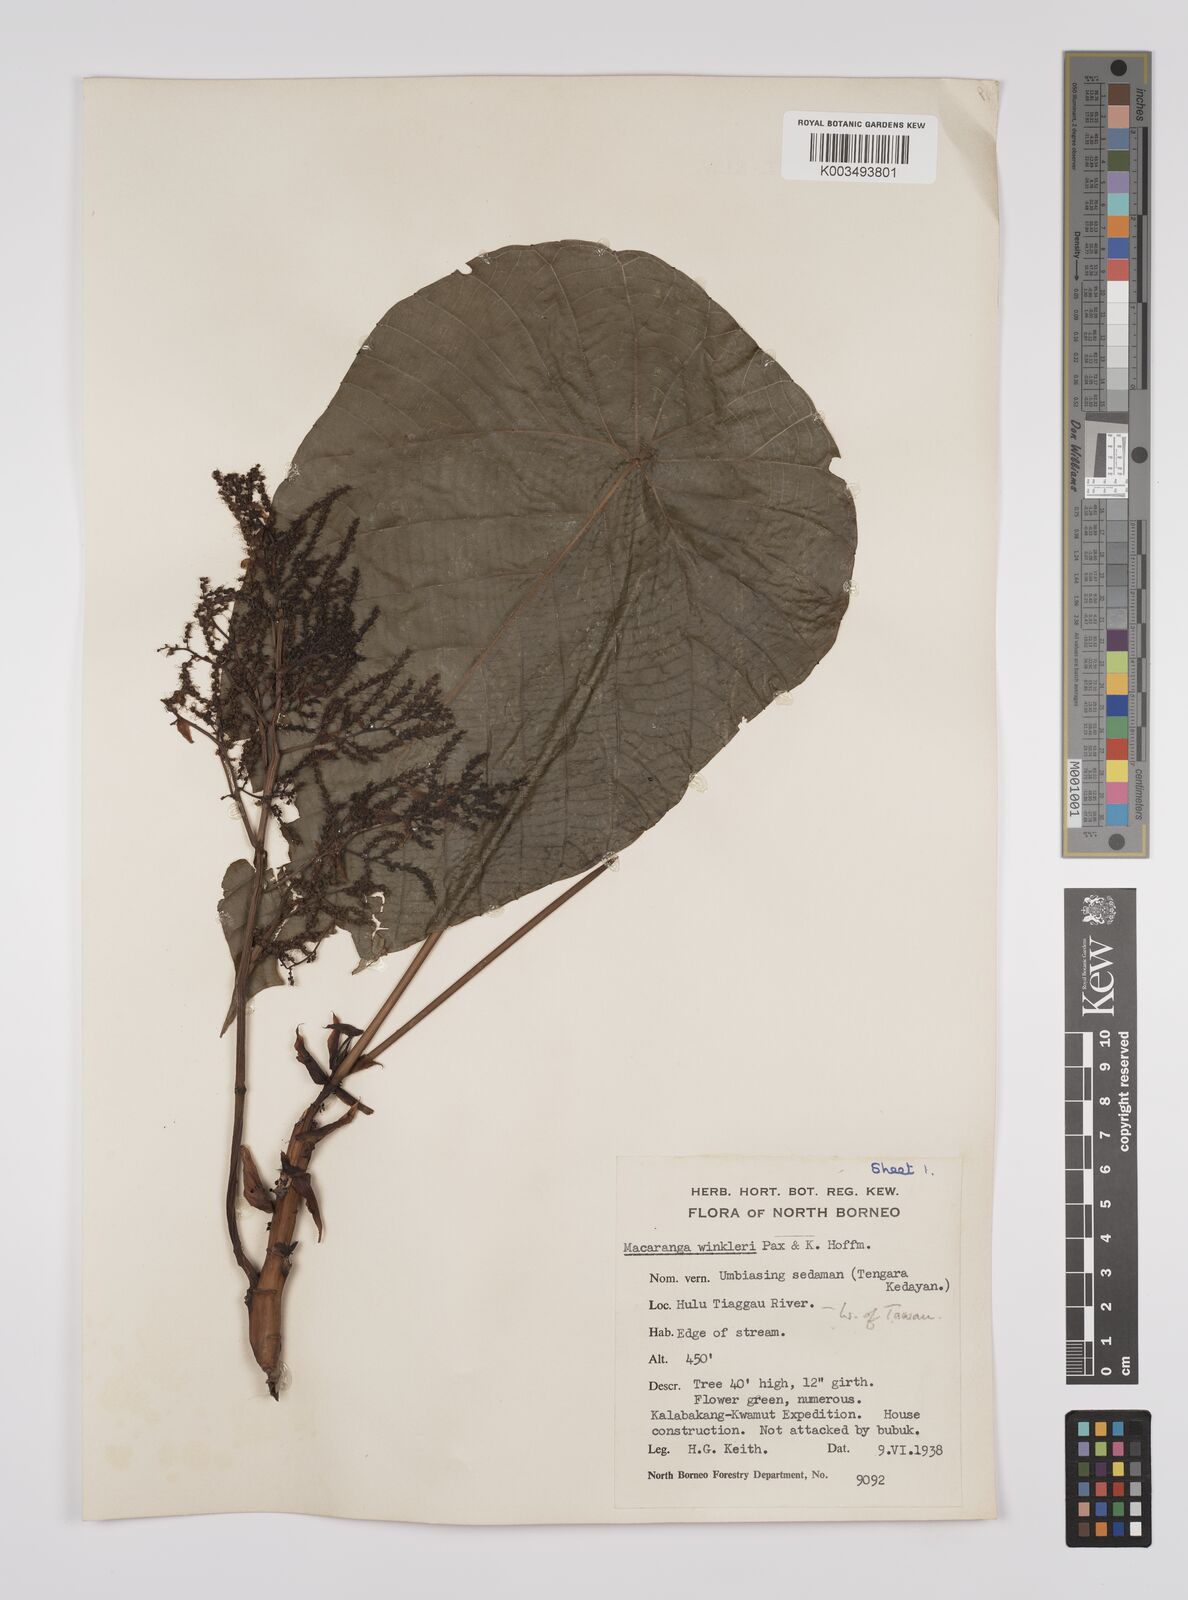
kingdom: Plantae
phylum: Tracheophyta
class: Magnoliopsida
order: Malpighiales
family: Euphorbiaceae
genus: Macaranga
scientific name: Macaranga winkleri
